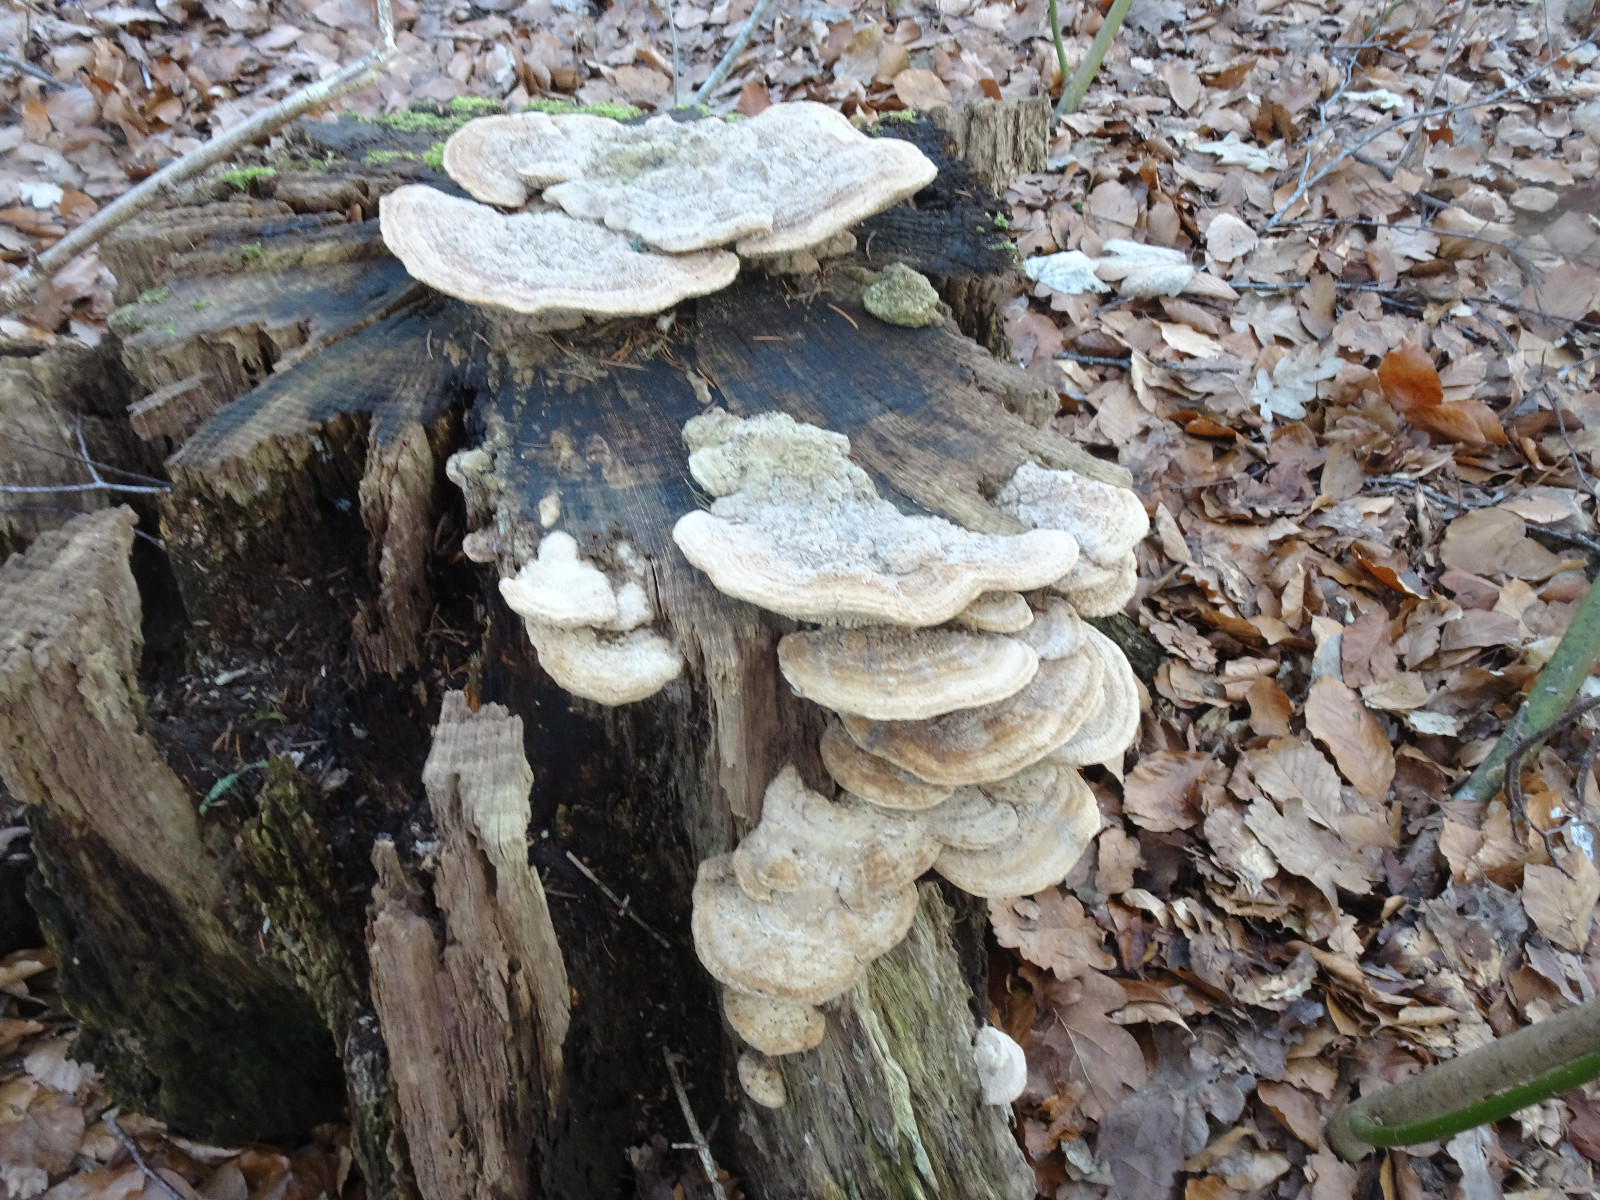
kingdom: Fungi
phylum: Basidiomycota
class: Agaricomycetes
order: Polyporales
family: Fomitopsidaceae
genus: Daedalea
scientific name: Daedalea quercina
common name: ege-labyrintsvamp
